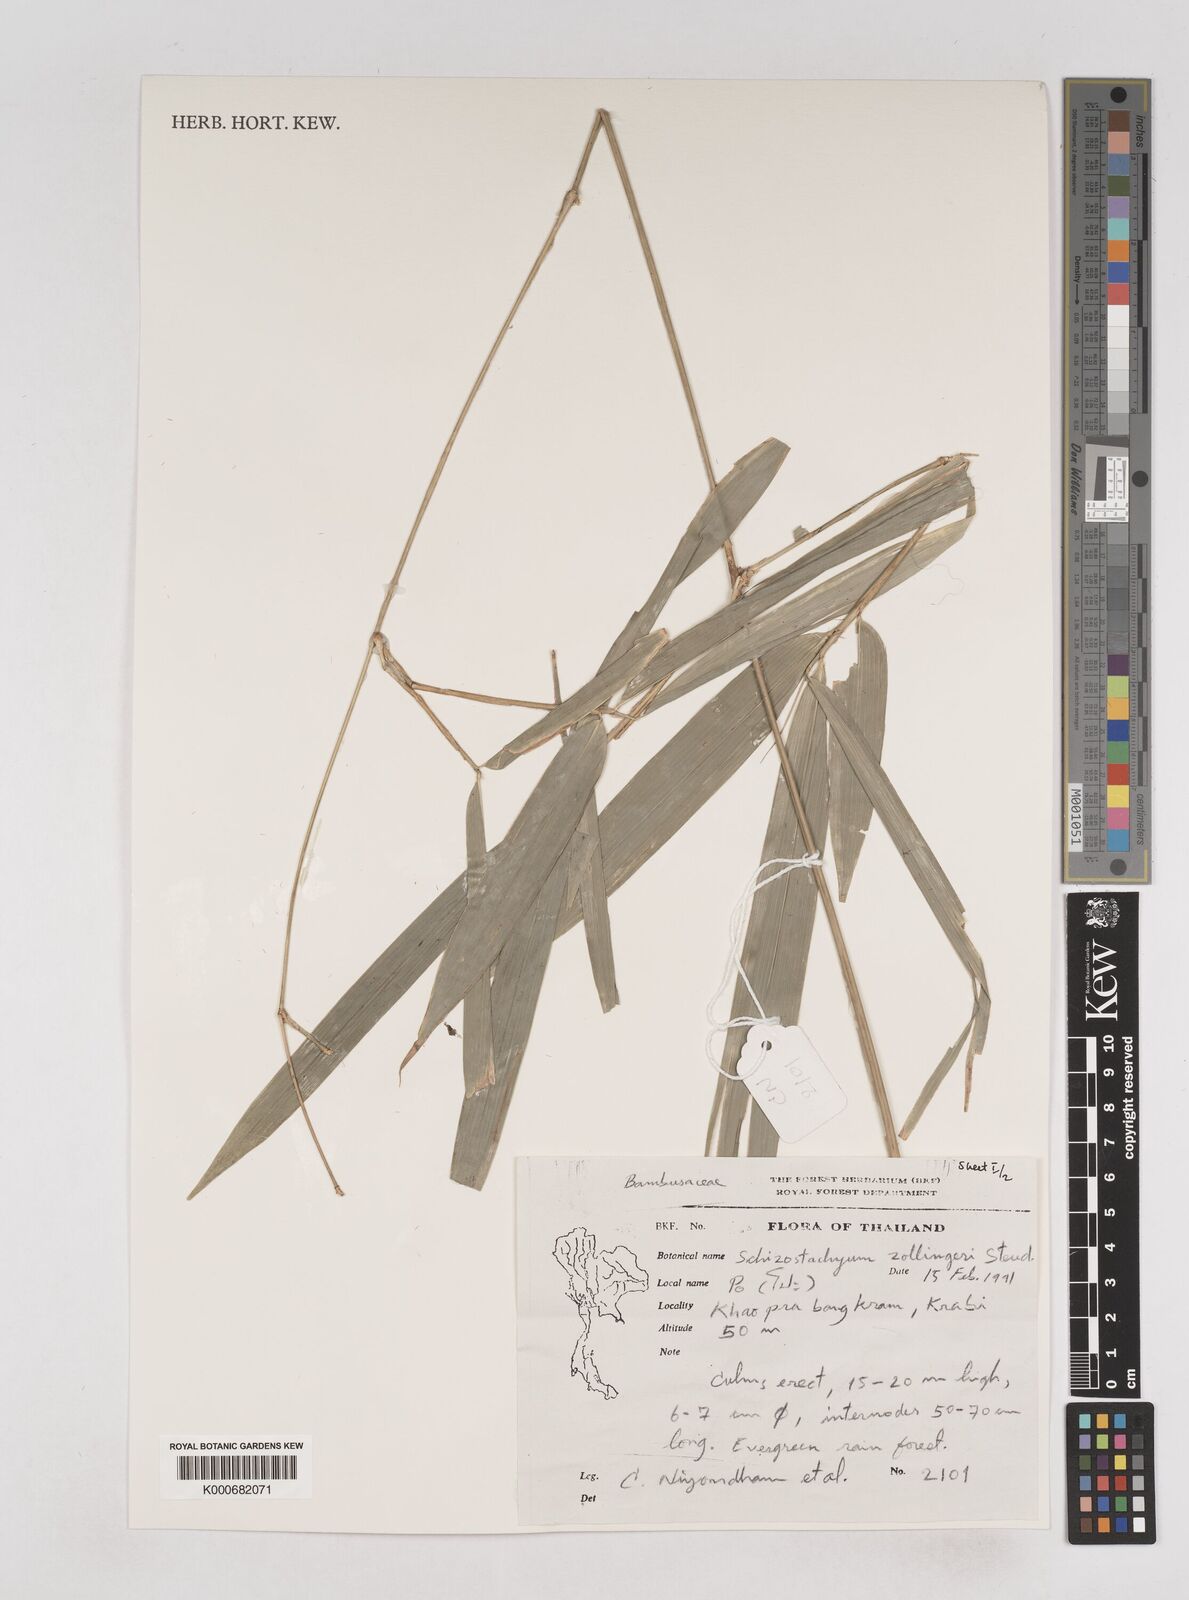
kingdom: Plantae
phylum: Tracheophyta
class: Liliopsida
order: Poales
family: Poaceae
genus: Schizostachyum
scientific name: Schizostachyum zollingeri
